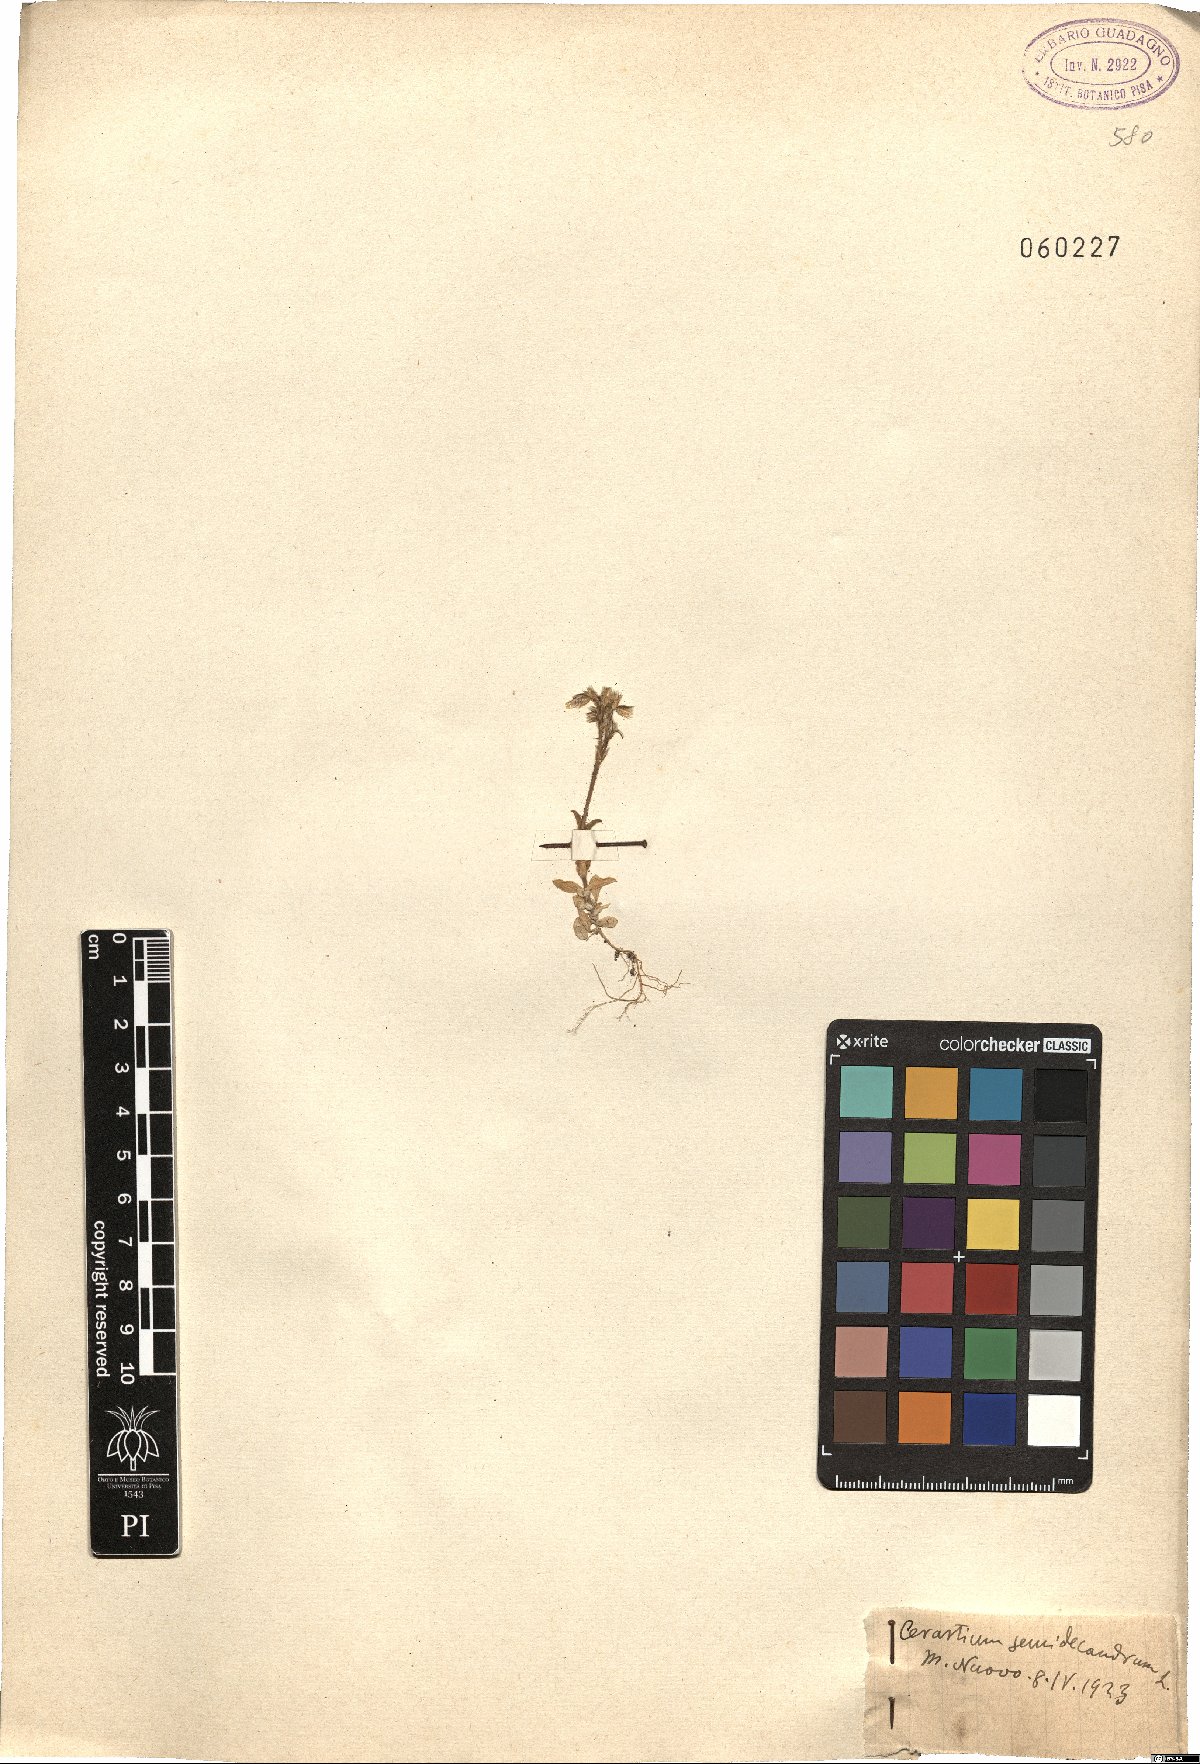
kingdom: Plantae
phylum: Tracheophyta
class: Magnoliopsida
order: Caryophyllales
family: Caryophyllaceae
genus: Cerastium
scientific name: Cerastium semidecandrum
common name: Little mouse-ear
